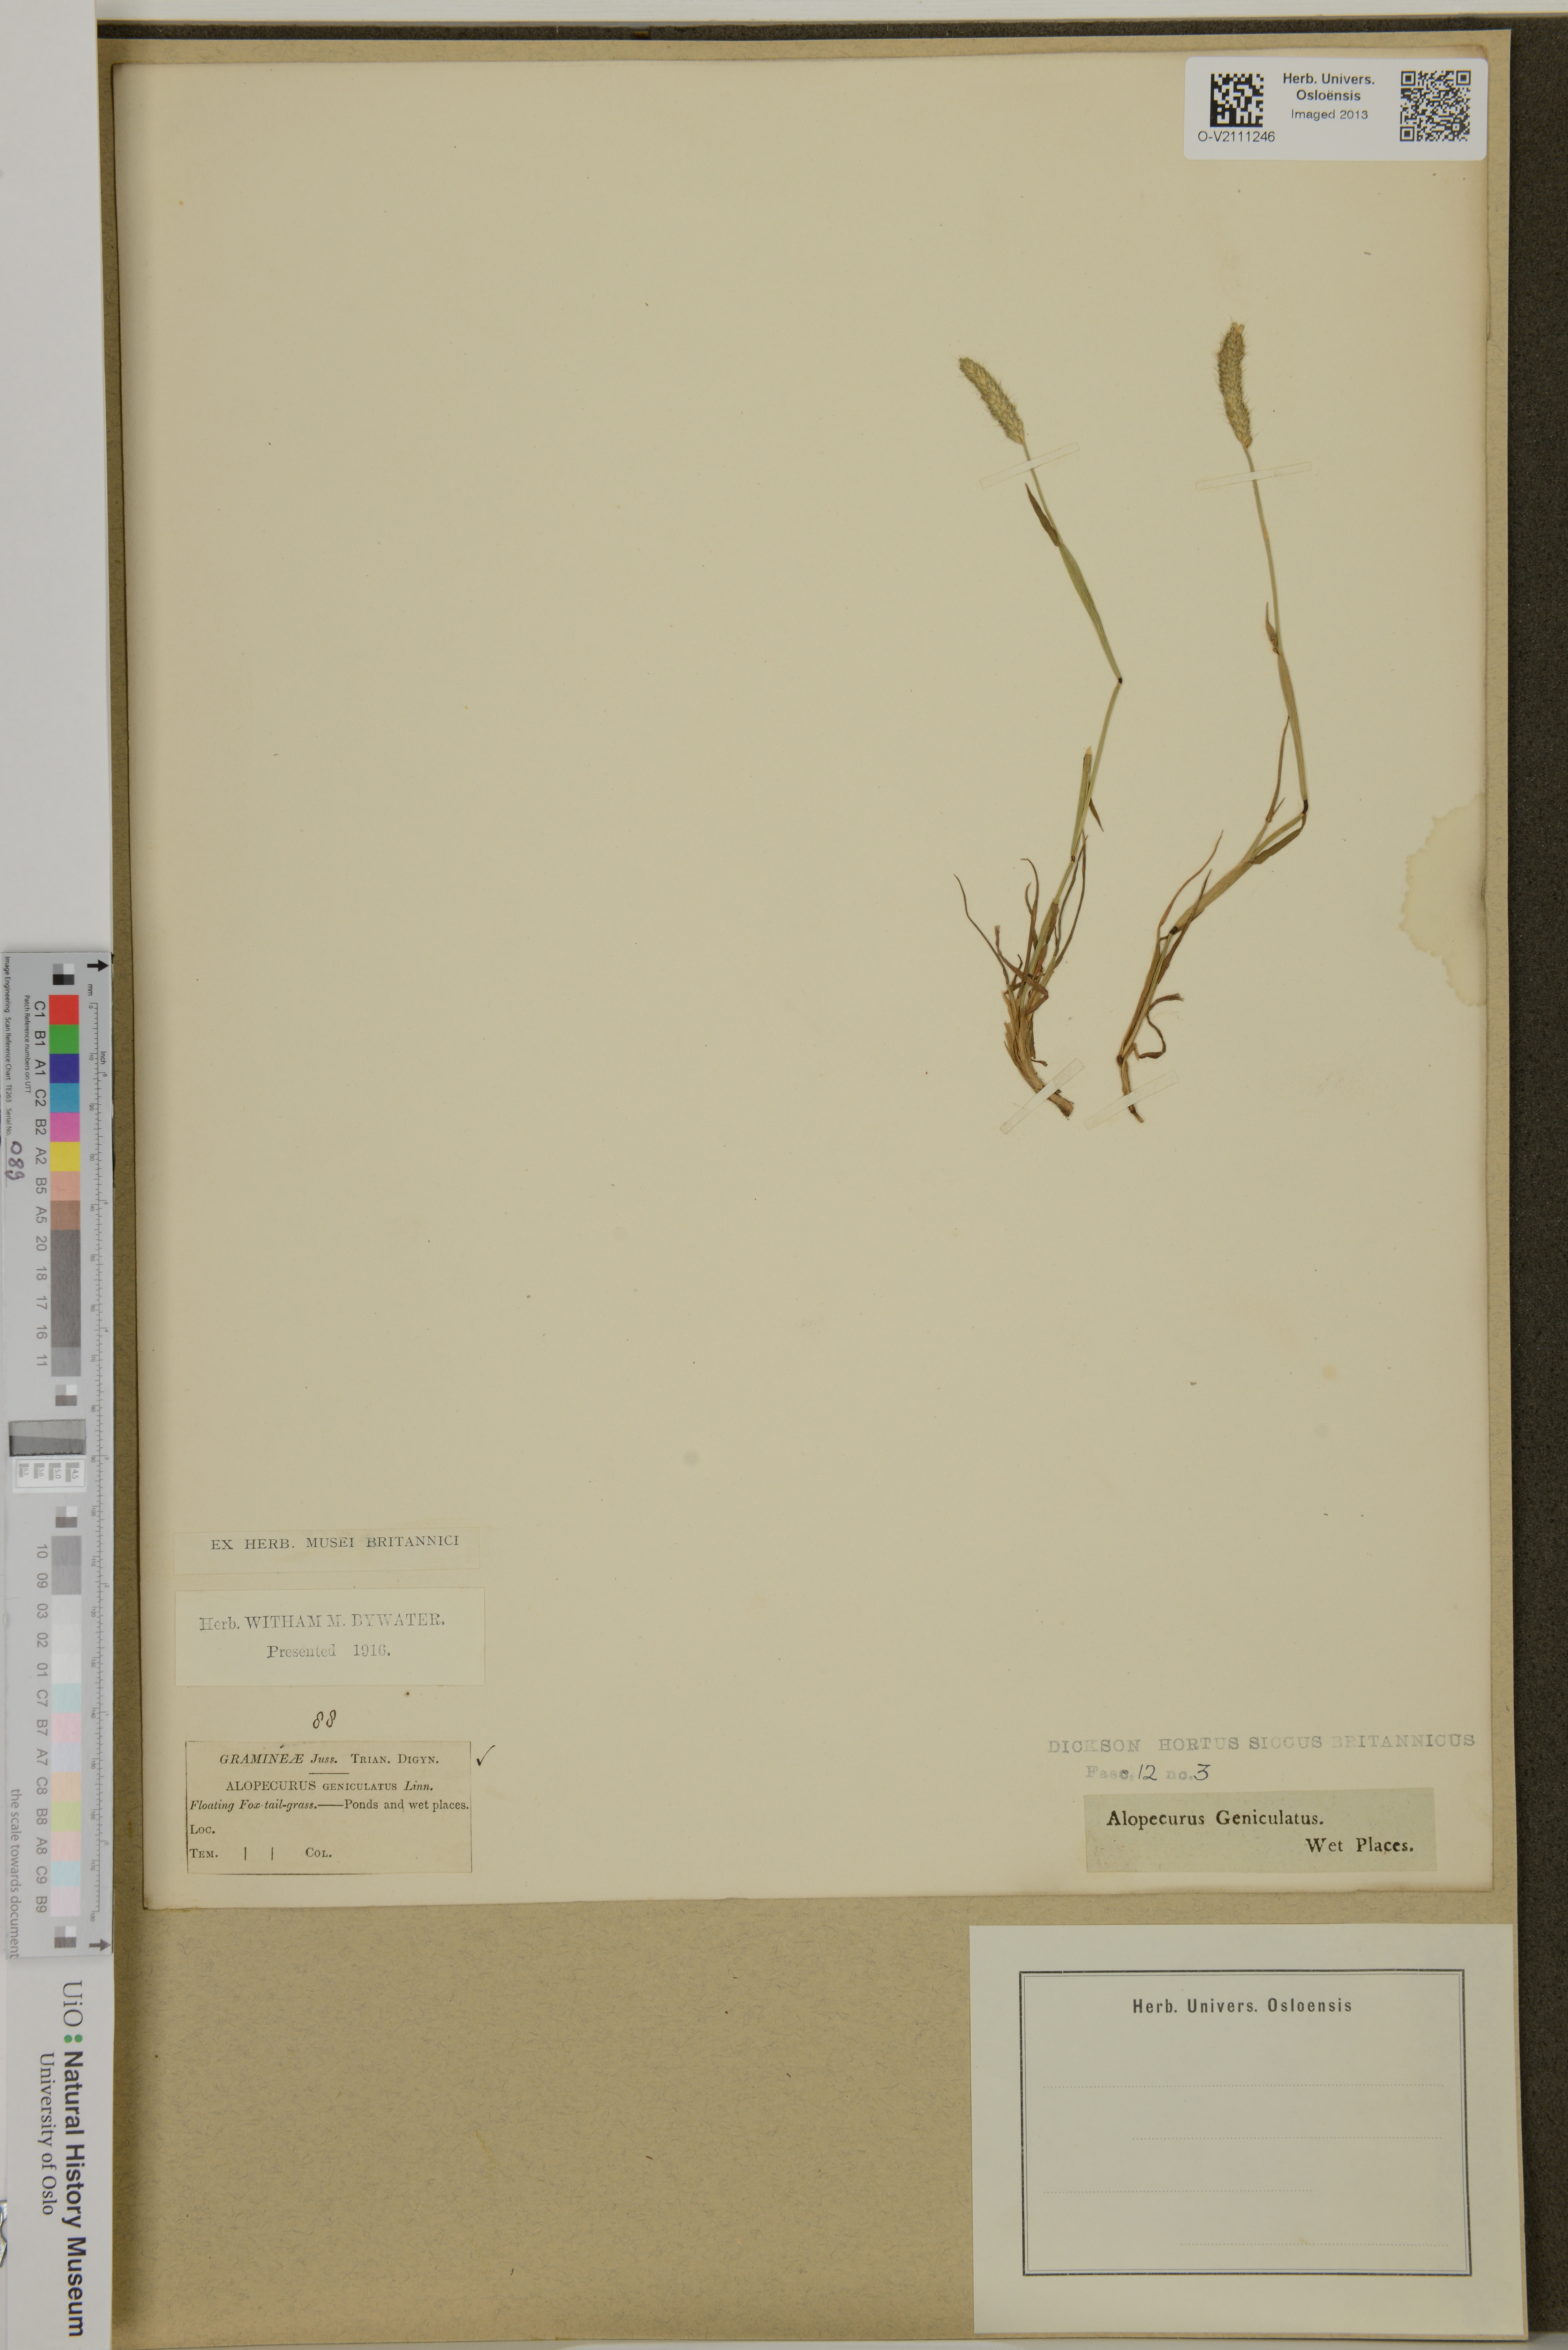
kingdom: Plantae
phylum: Tracheophyta
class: Liliopsida
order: Poales
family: Poaceae
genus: Alopecurus
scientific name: Alopecurus geniculatus
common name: Water foxtail
